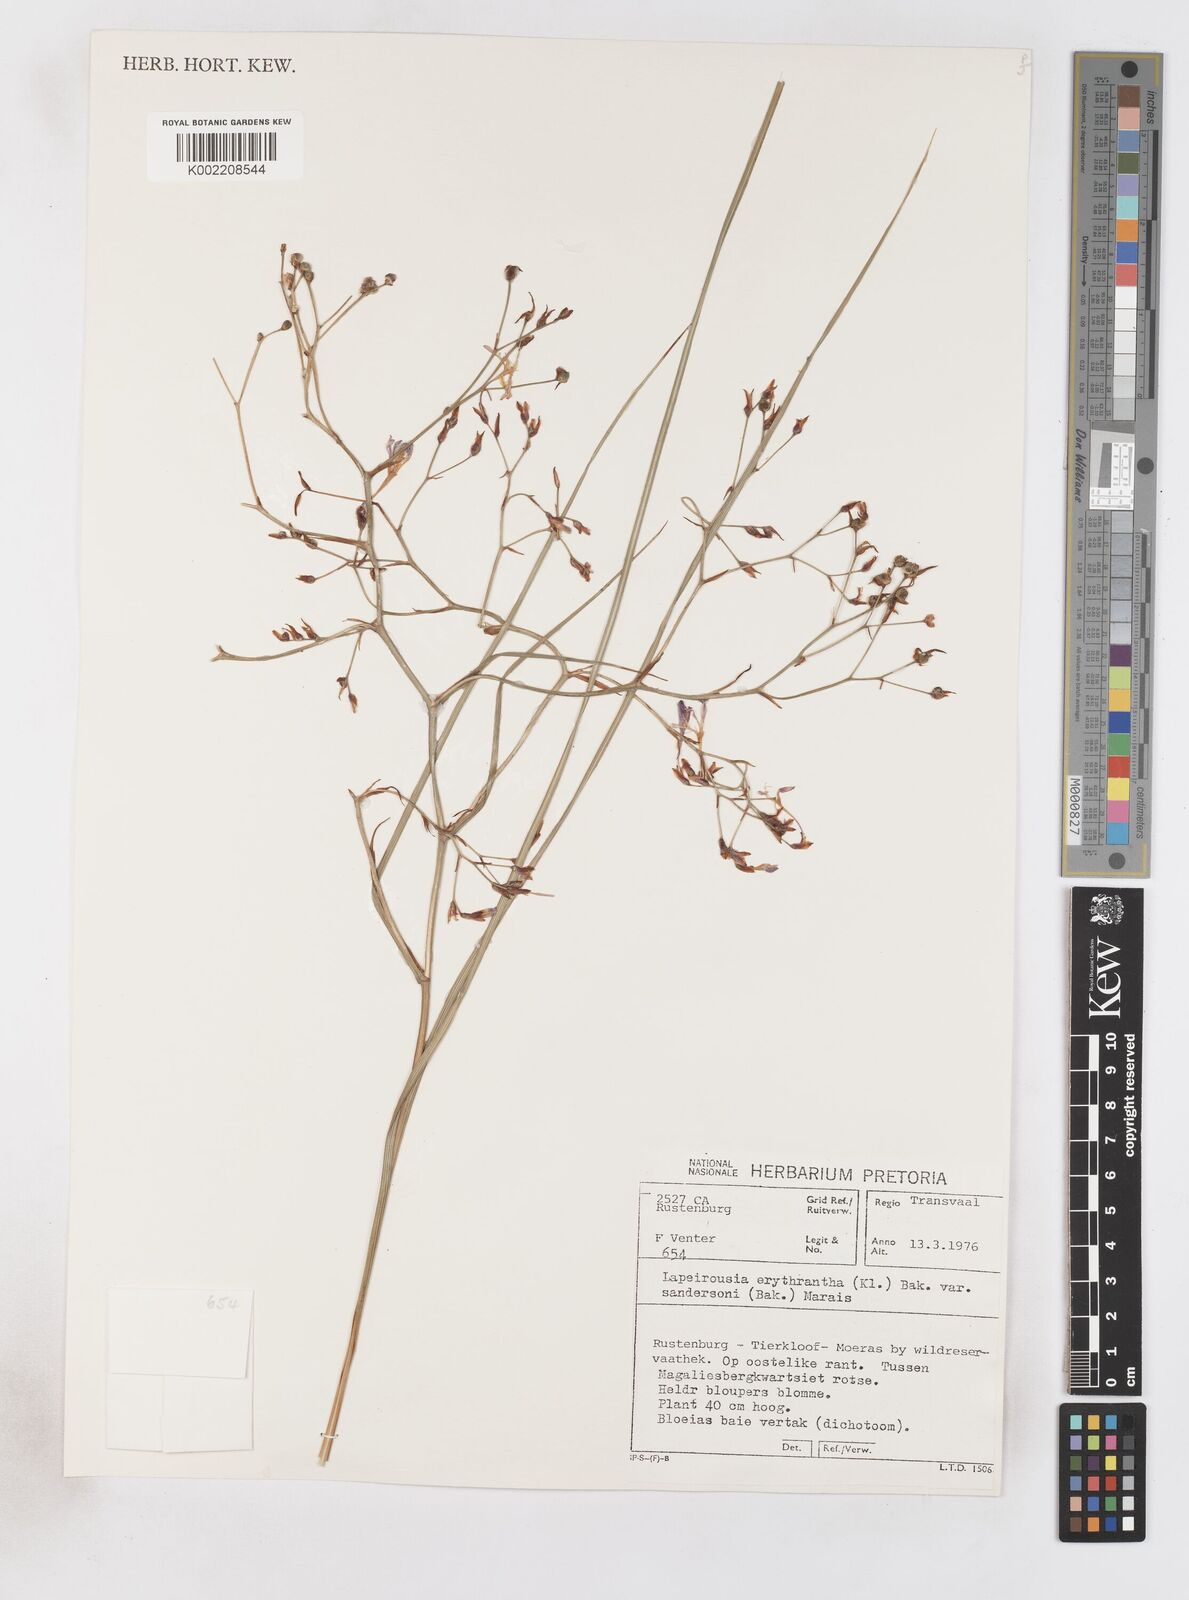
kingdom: Plantae
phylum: Tracheophyta
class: Liliopsida
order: Asparagales
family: Iridaceae
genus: Afrosolen
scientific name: Afrosolen sandersonii
